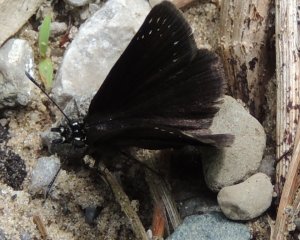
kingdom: Animalia
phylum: Arthropoda
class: Insecta
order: Lepidoptera
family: Hesperiidae
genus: Pholisora
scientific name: Pholisora catullus
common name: Common Sootywing
